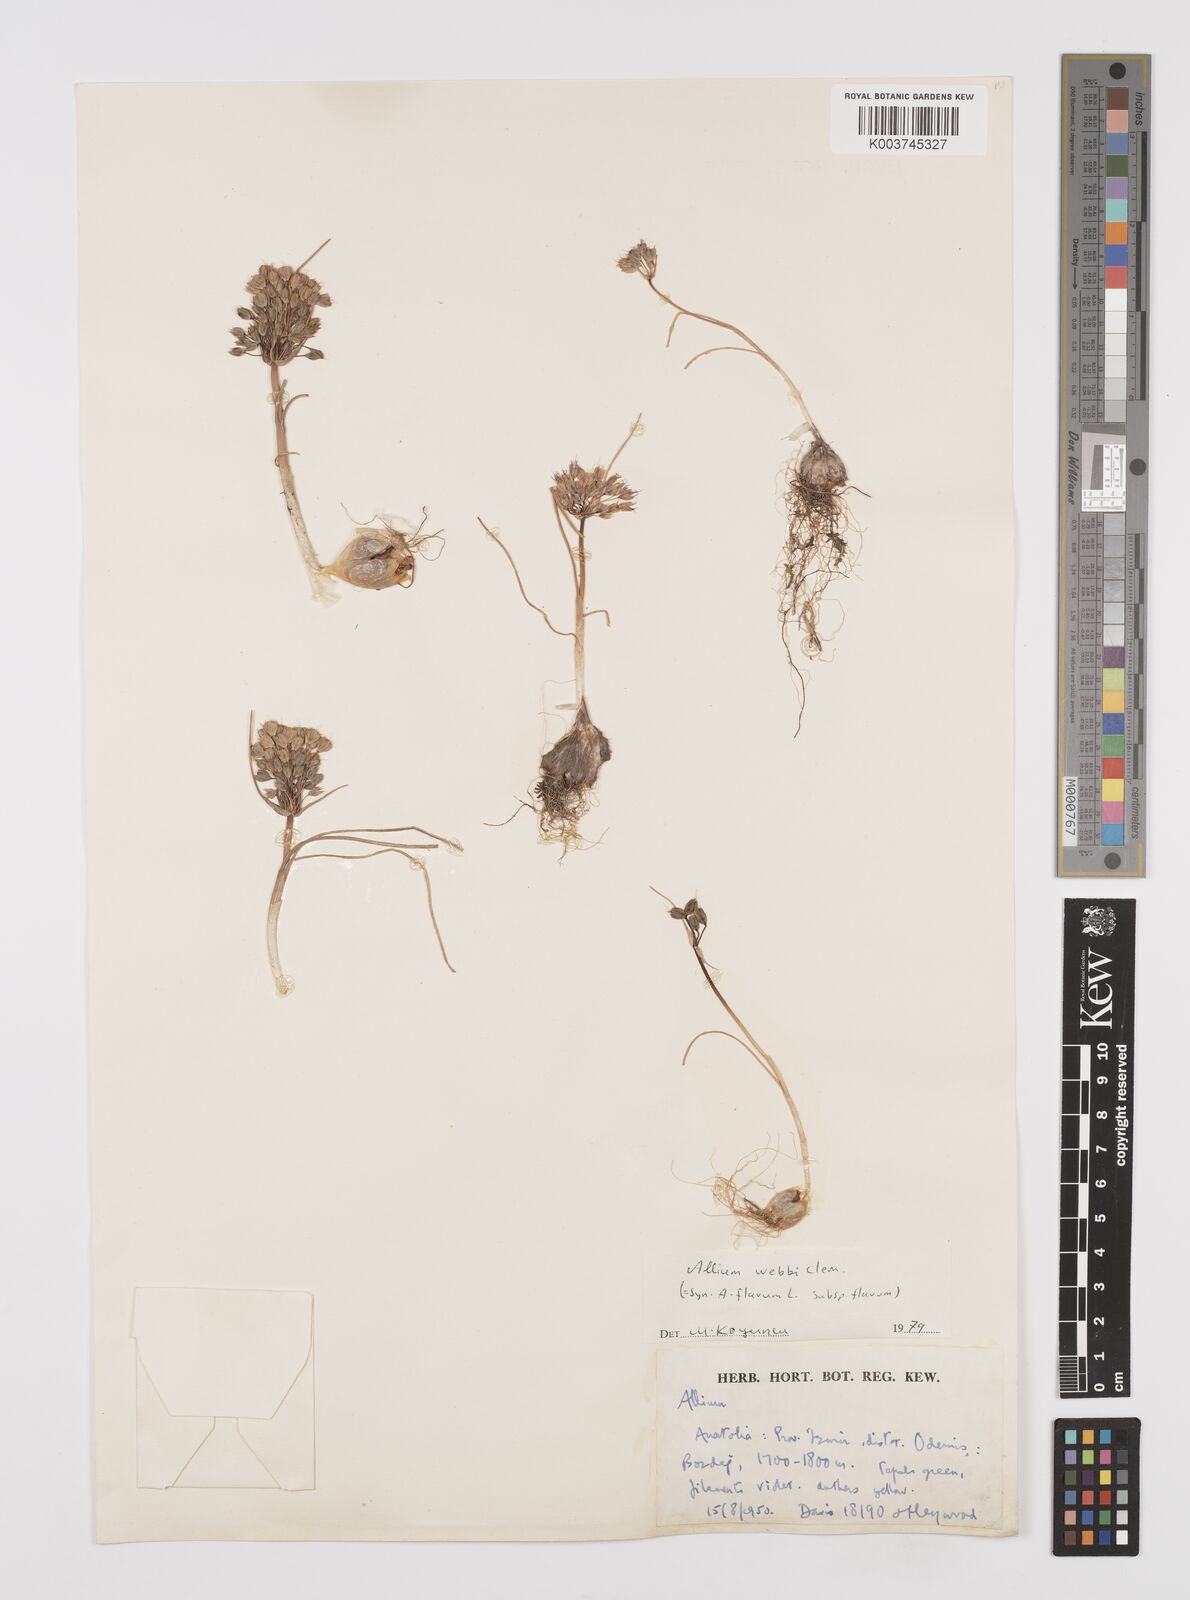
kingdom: Plantae
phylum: Tracheophyta
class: Liliopsida
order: Asparagales
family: Amaryllidaceae
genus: Allium
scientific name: Allium flavum
